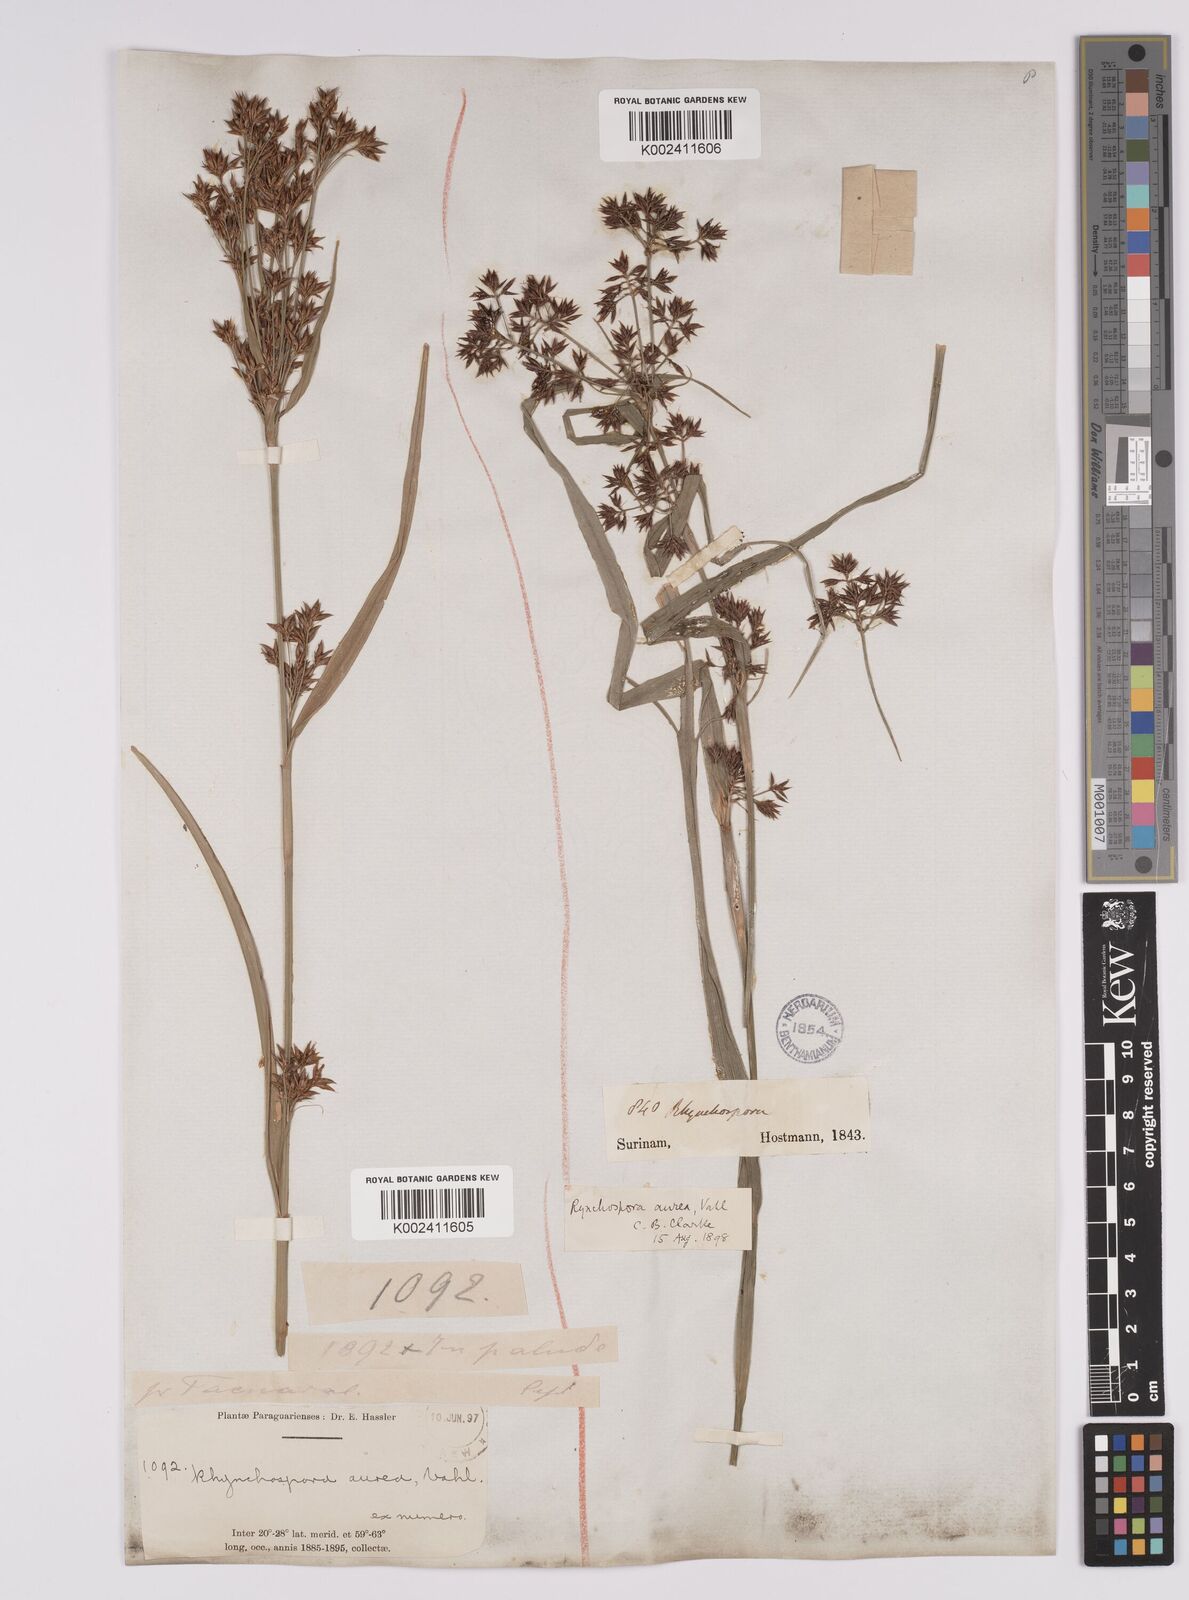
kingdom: Plantae
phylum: Tracheophyta
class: Liliopsida
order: Poales
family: Cyperaceae
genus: Rhynchospora
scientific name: Rhynchospora corymbosa
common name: Golden beak sedge
